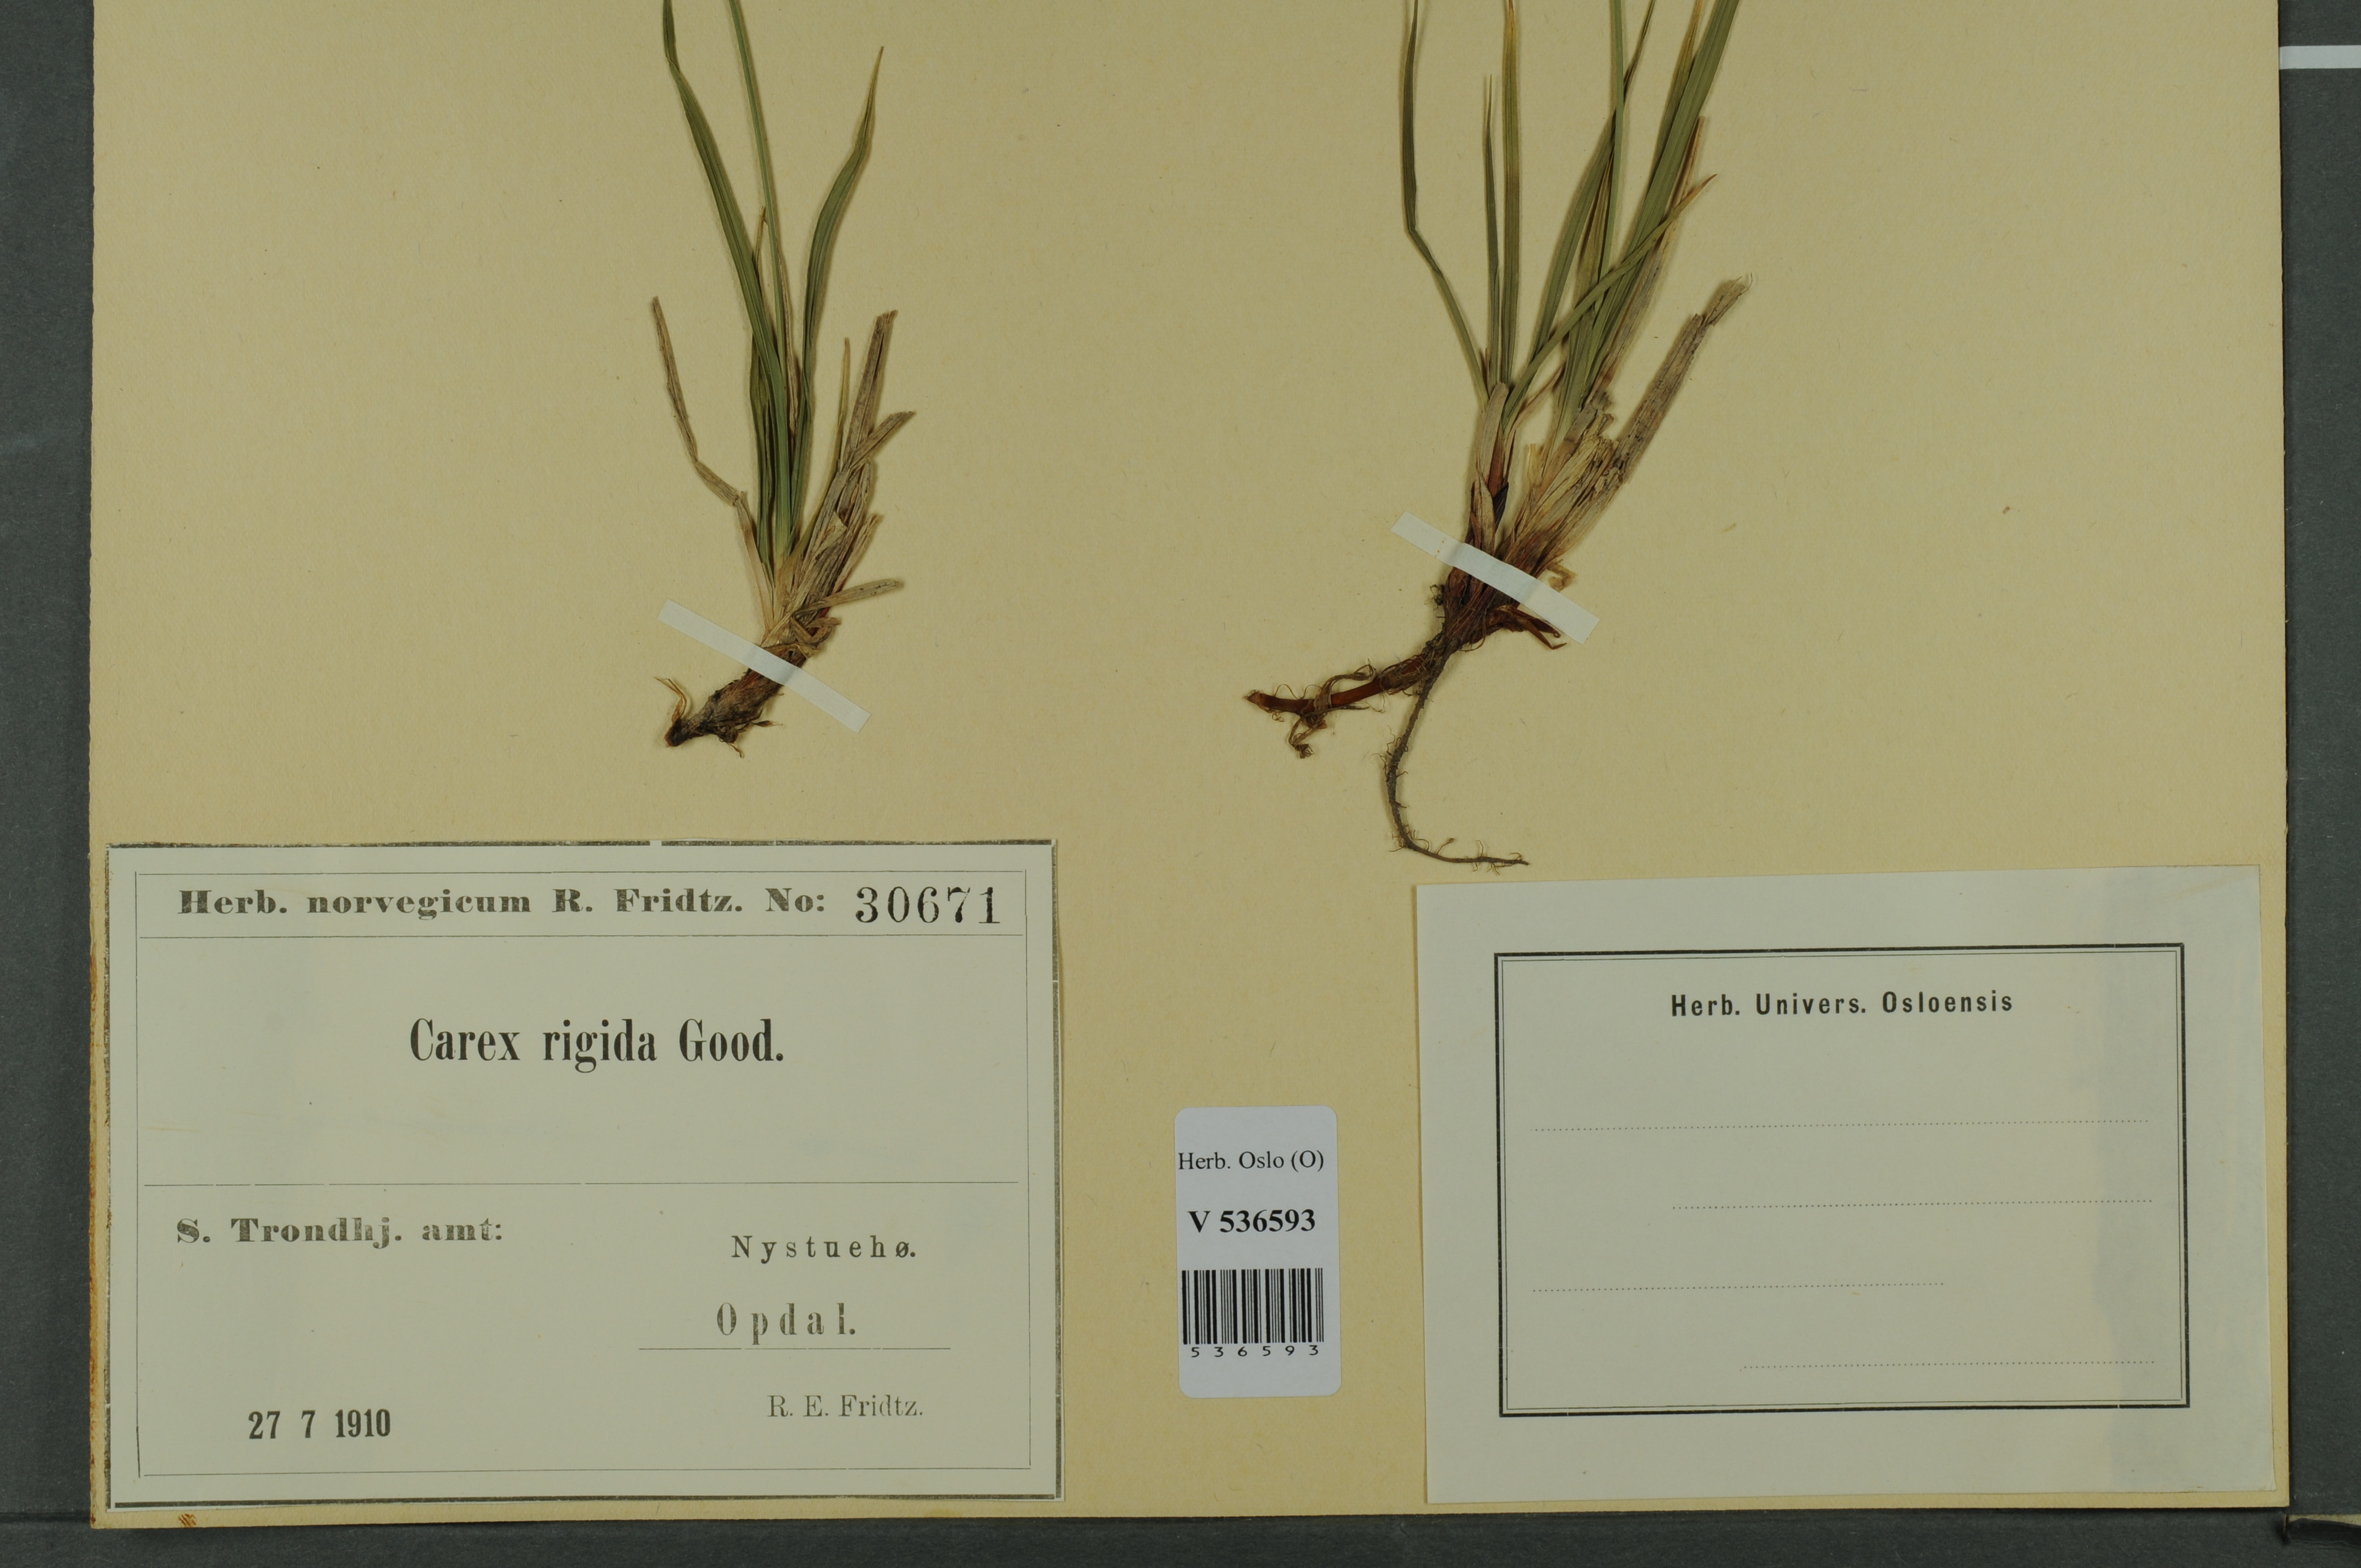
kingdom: Plantae
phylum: Tracheophyta
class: Liliopsida
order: Poales
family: Cyperaceae
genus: Carex
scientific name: Carex dacica
